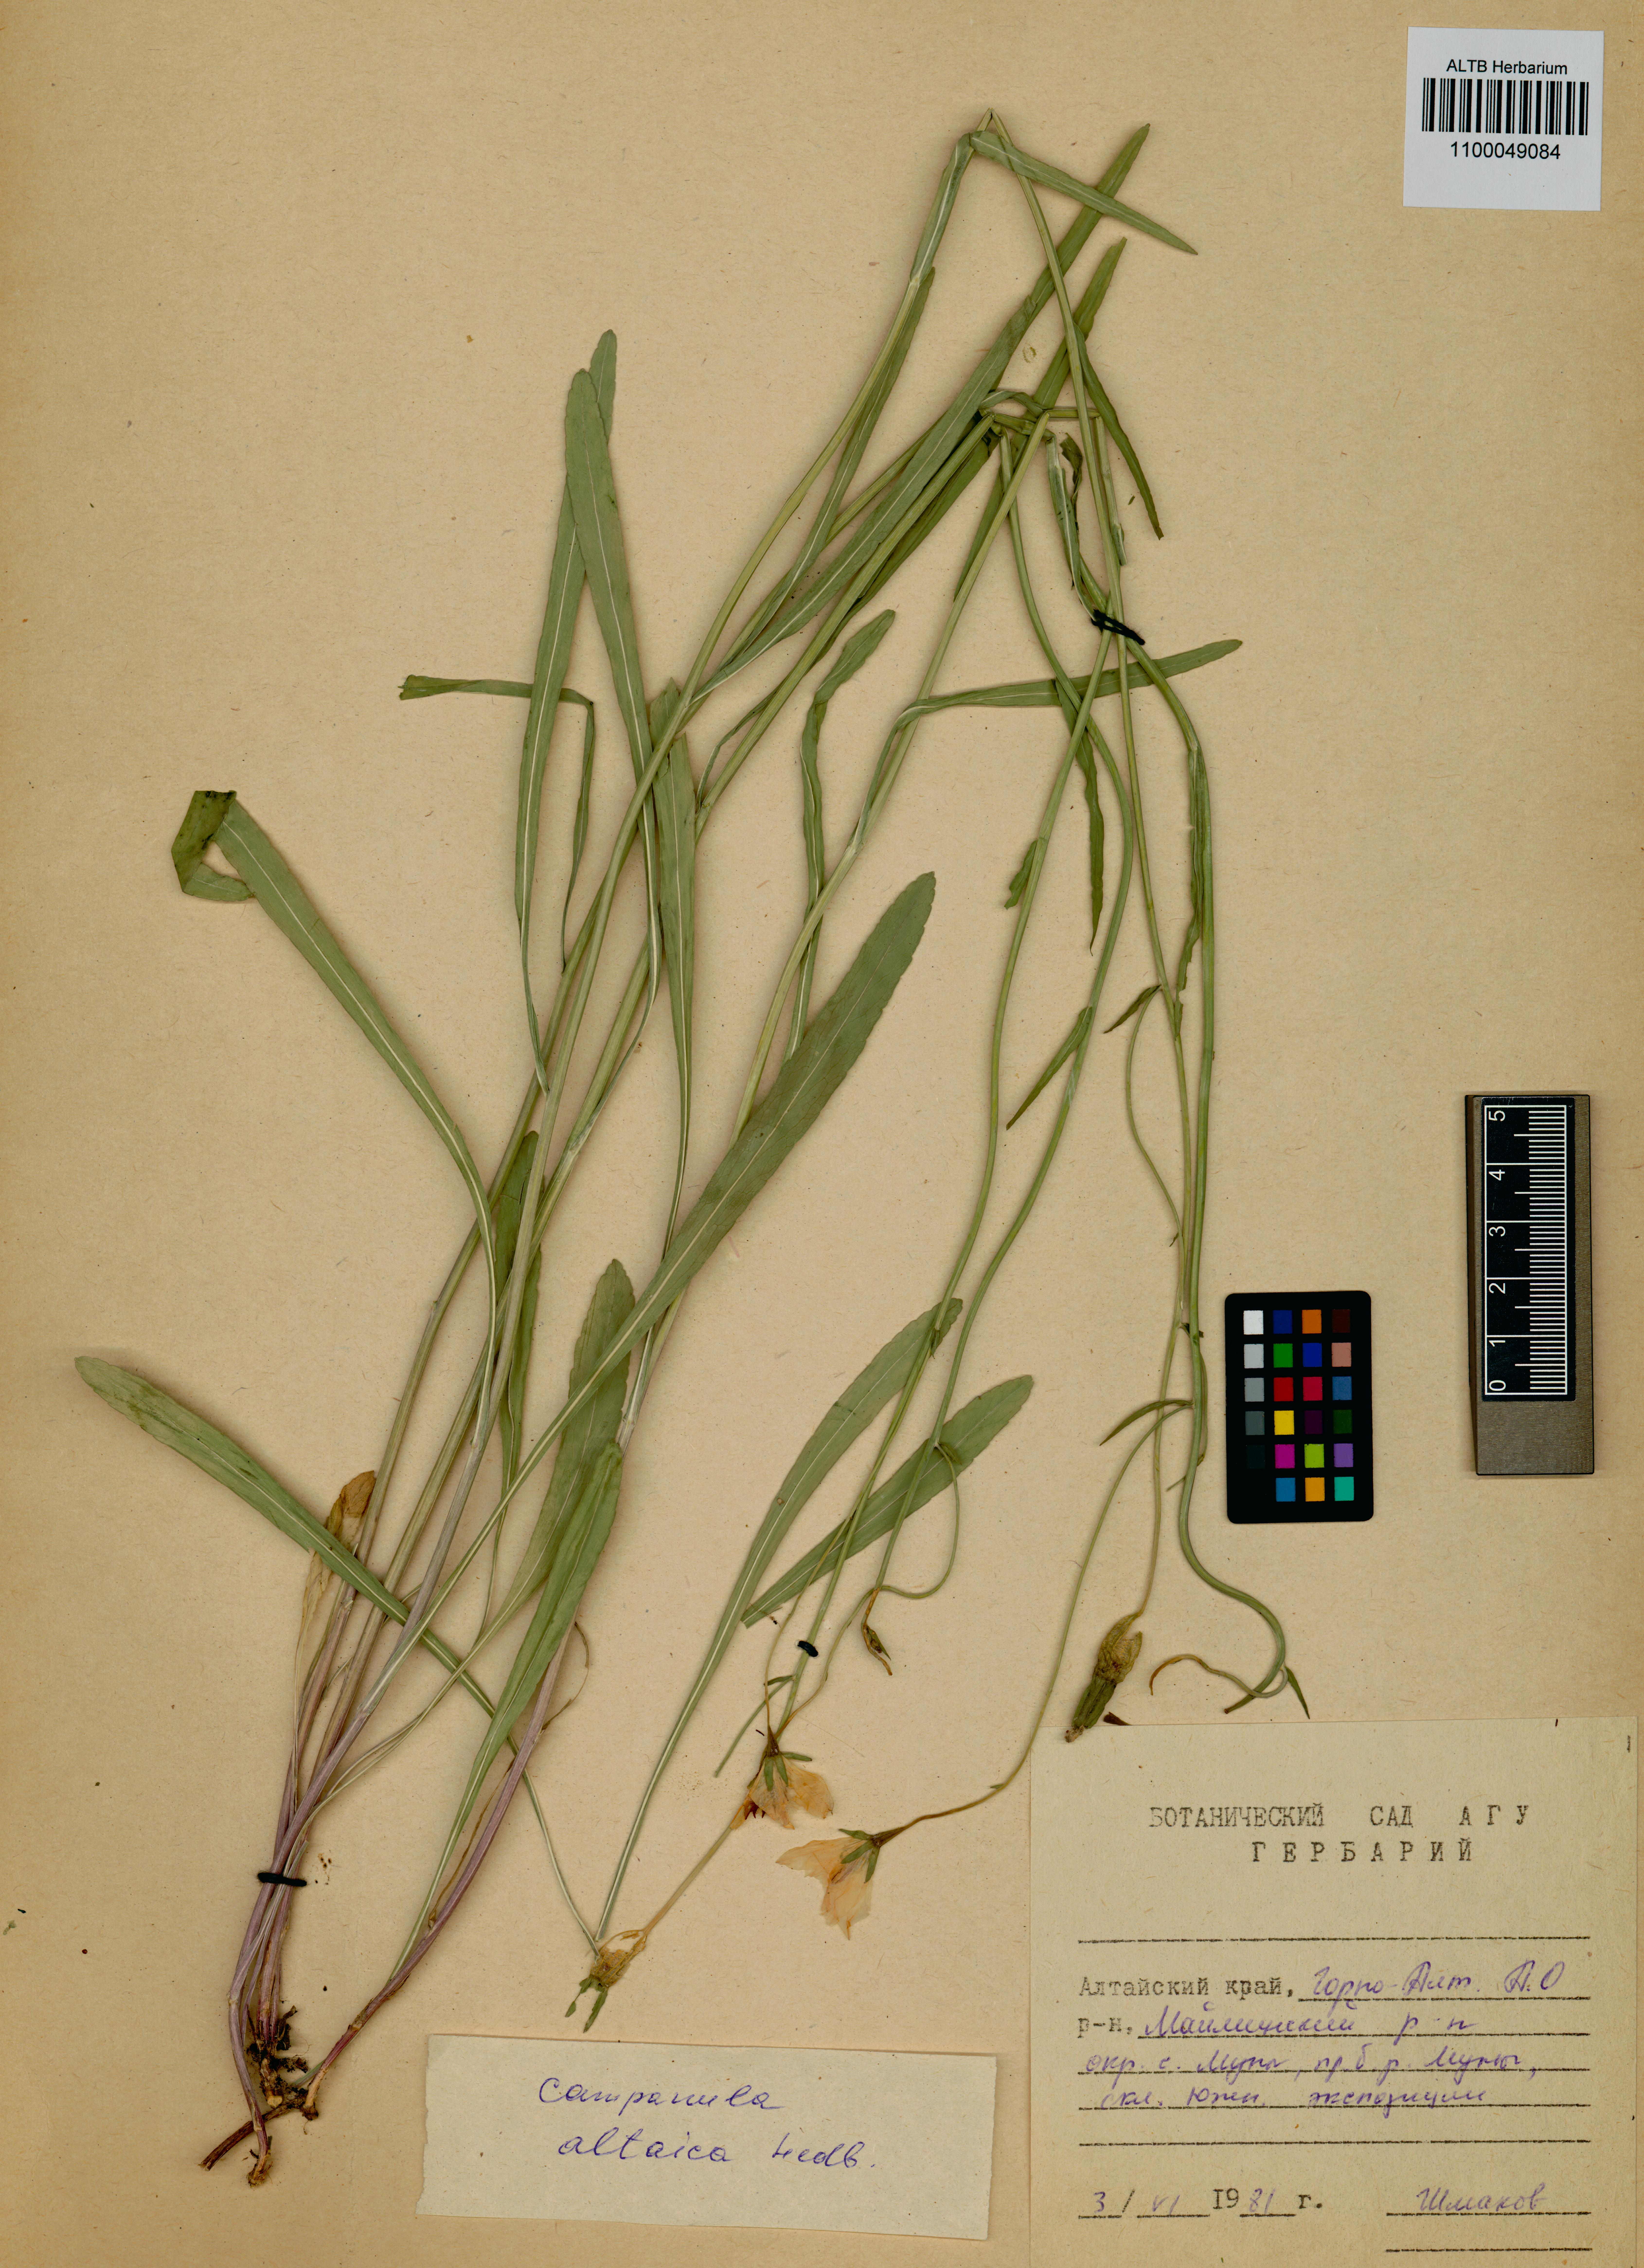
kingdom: Plantae
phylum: Tracheophyta
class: Magnoliopsida
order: Asterales
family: Campanulaceae
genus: Campanula
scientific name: Campanula stevenii
